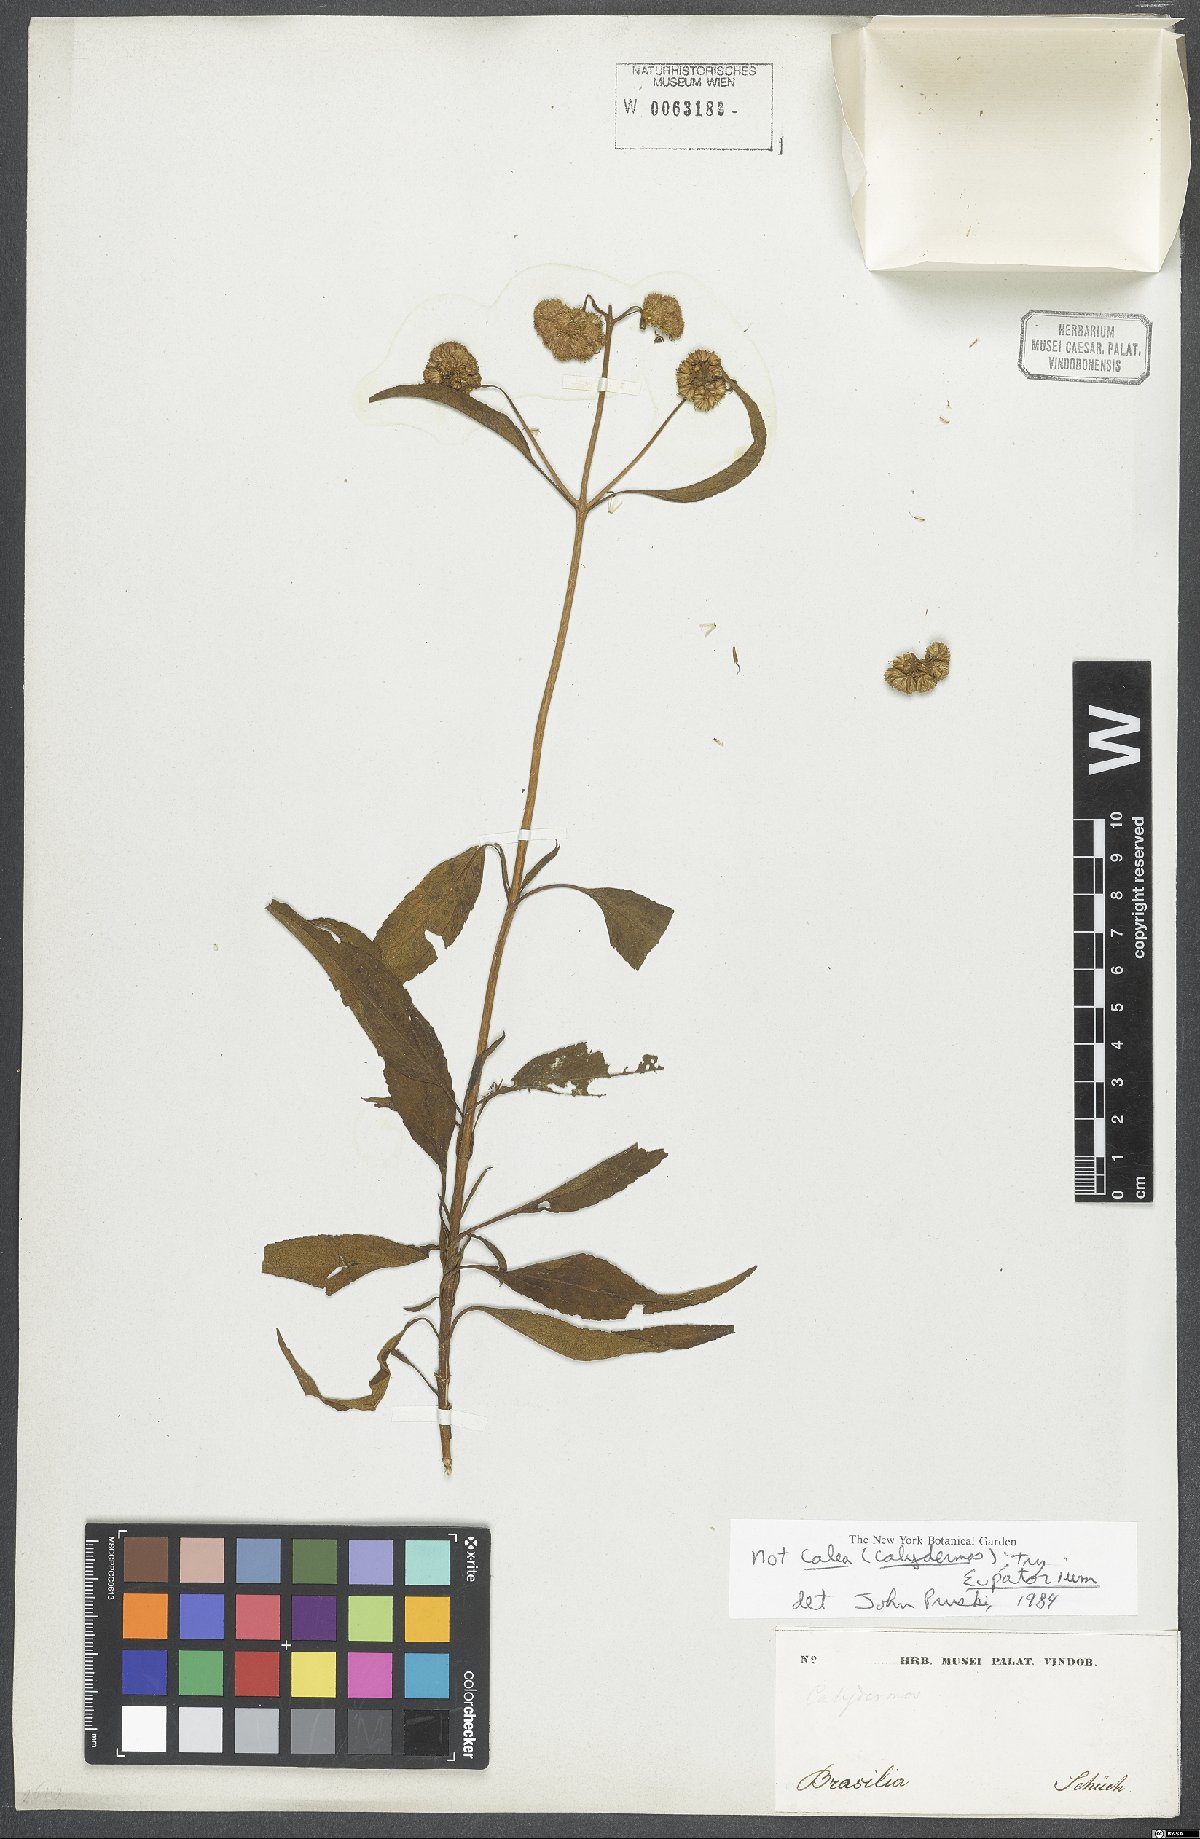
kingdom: Plantae
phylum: Tracheophyta
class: Magnoliopsida
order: Asterales
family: Asteraceae
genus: Eupatorium
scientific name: Eupatorium
